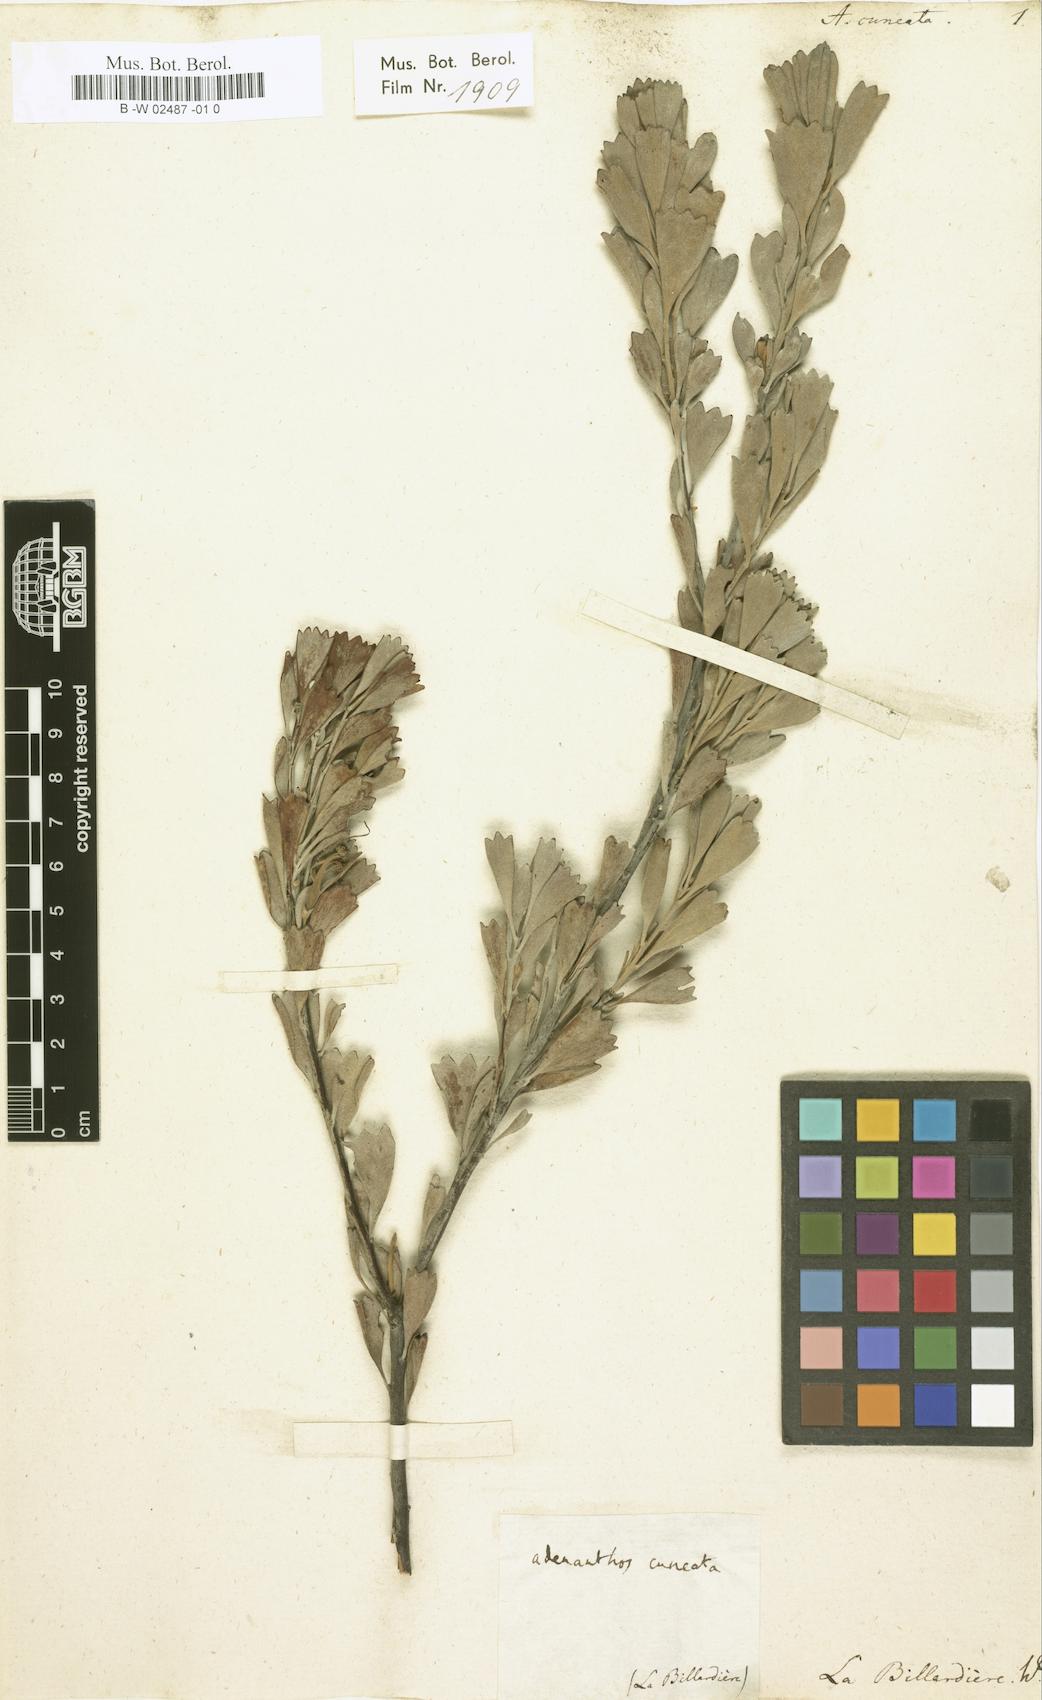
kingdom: Plantae
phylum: Tracheophyta
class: Magnoliopsida
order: Proteales
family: Proteaceae
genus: Adenanthos
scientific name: Adenanthos cuneatus
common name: Flamebush
